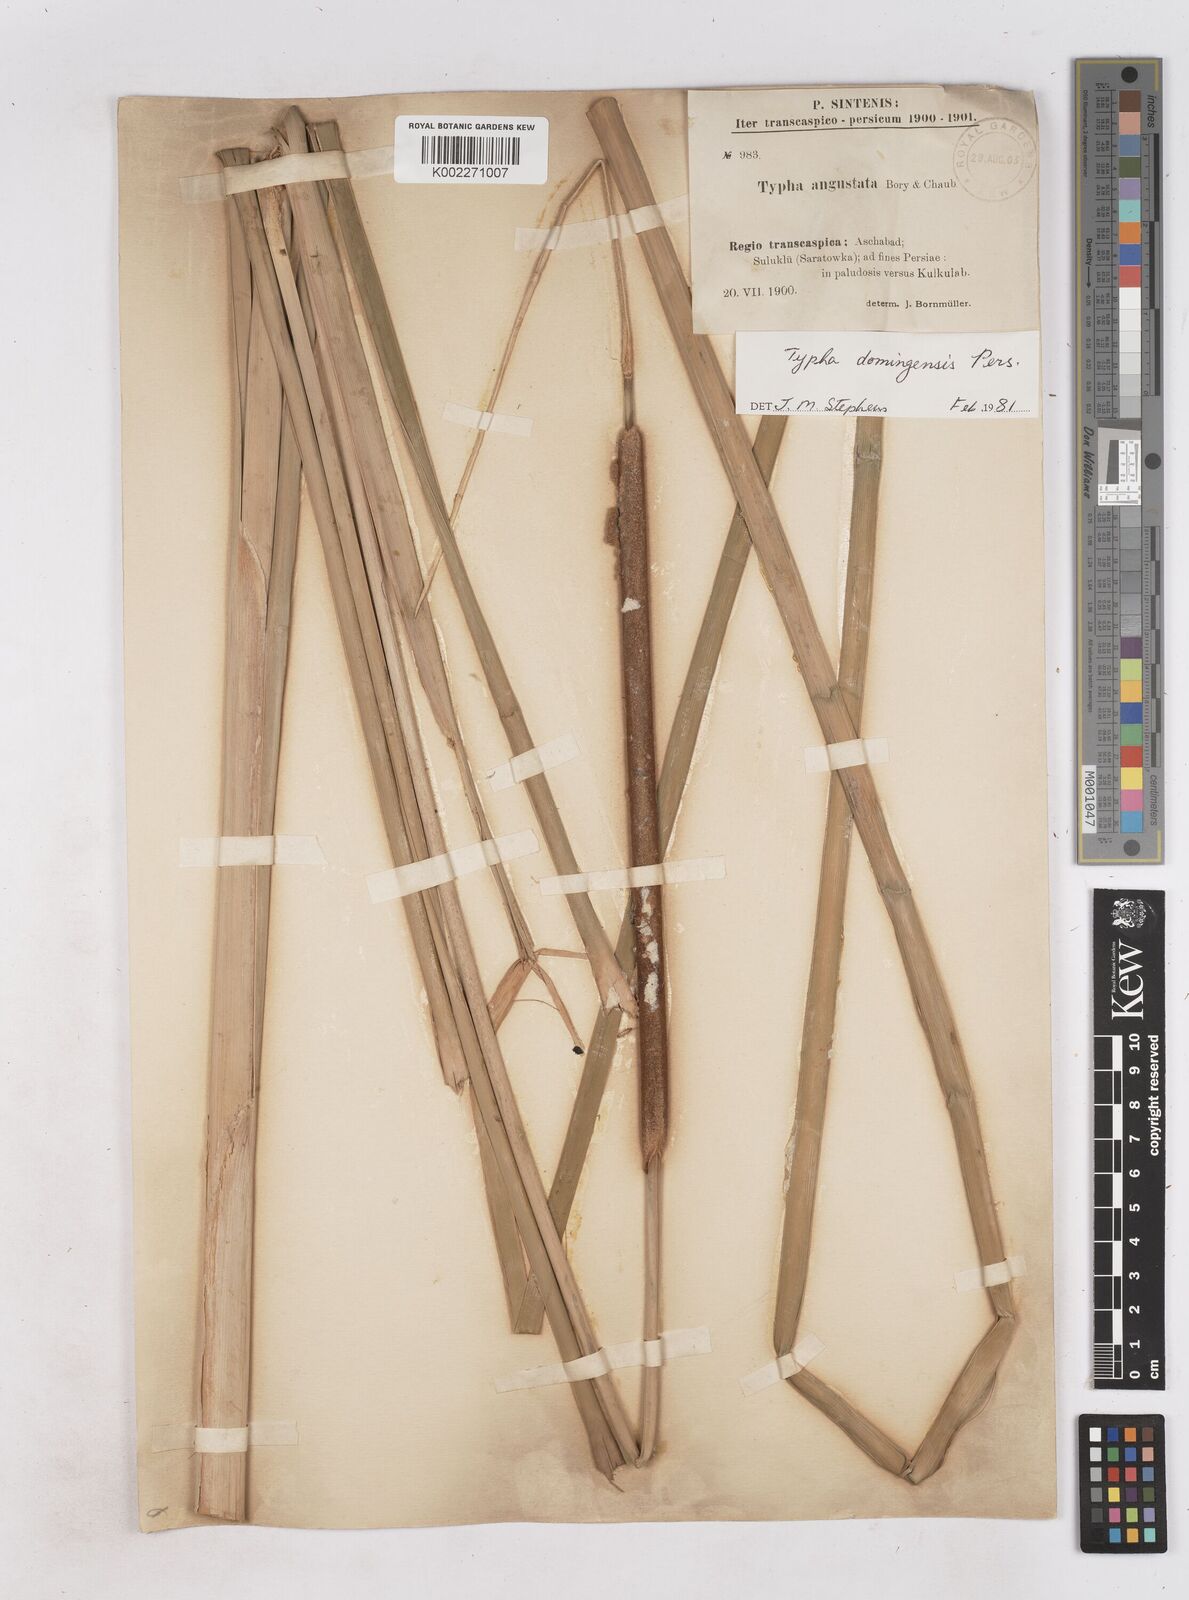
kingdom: Plantae
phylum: Tracheophyta
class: Liliopsida
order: Poales
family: Typhaceae
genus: Typha
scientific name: Typha domingensis
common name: Southern cattail
